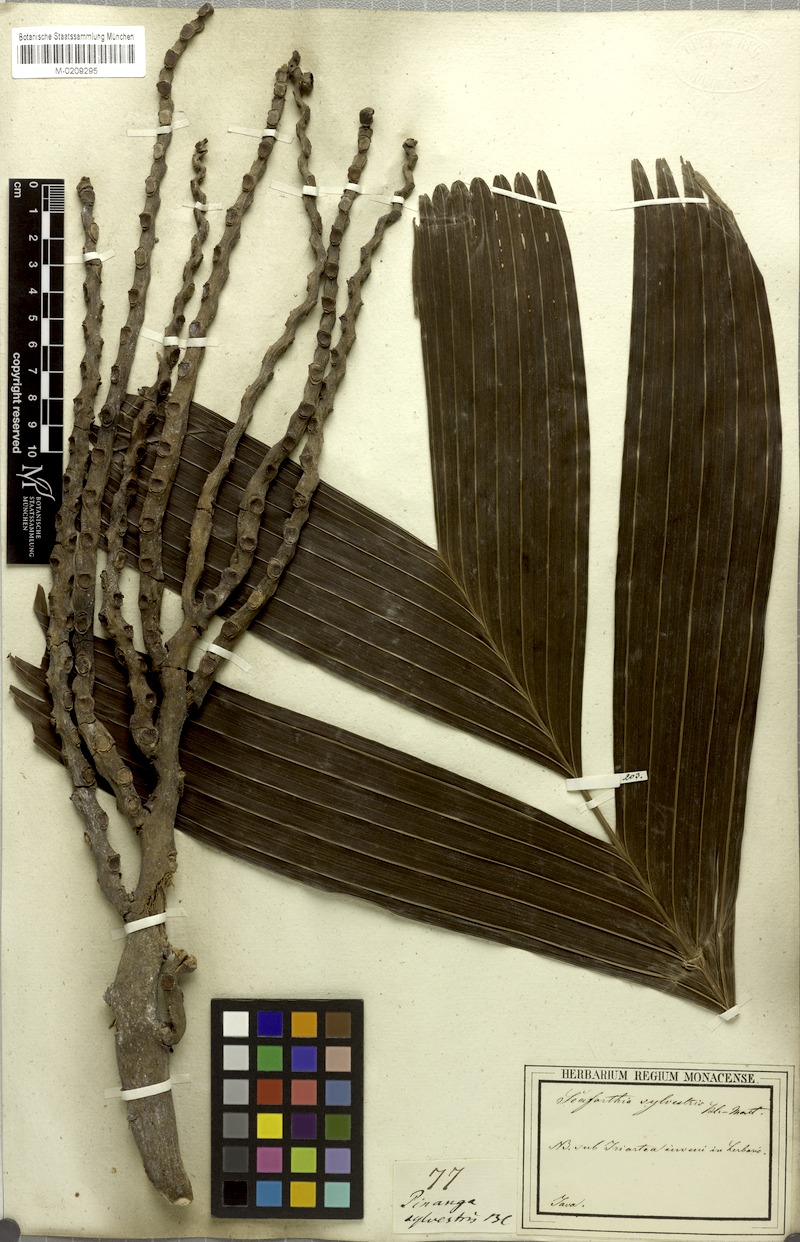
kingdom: Plantae
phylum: Tracheophyta
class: Liliopsida
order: Arecales
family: Arecaceae
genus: Pinanga
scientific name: Pinanga javana
